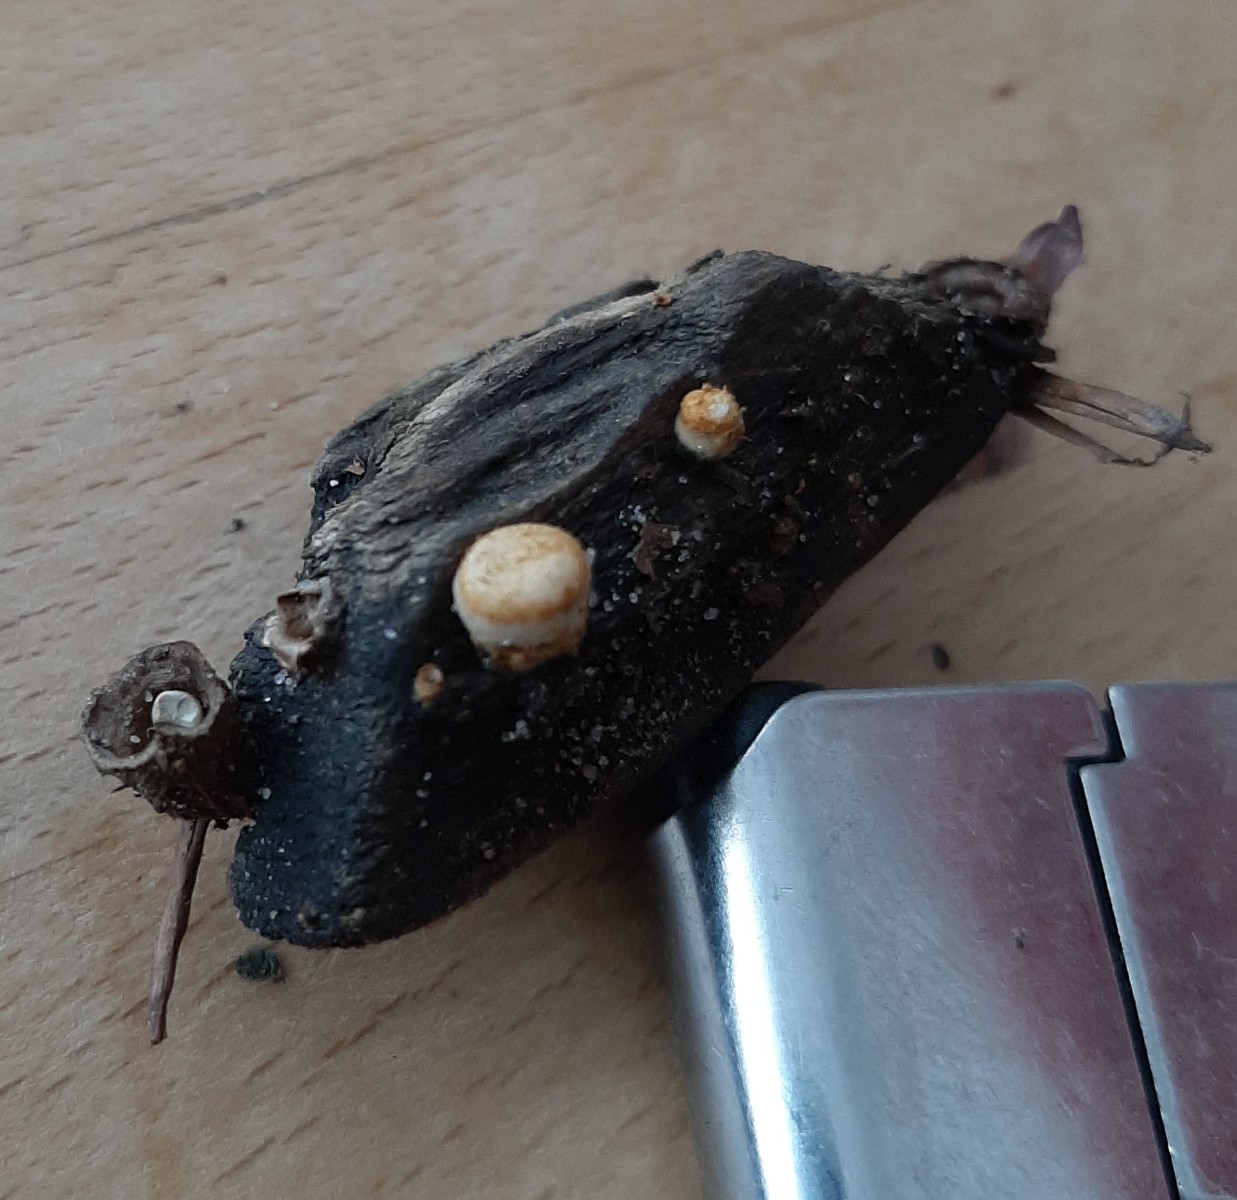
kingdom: Fungi
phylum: Basidiomycota
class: Agaricomycetes
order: Agaricales
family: Nidulariaceae
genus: Crucibulum
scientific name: Crucibulum crucibuliforme
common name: krukkesvamp
